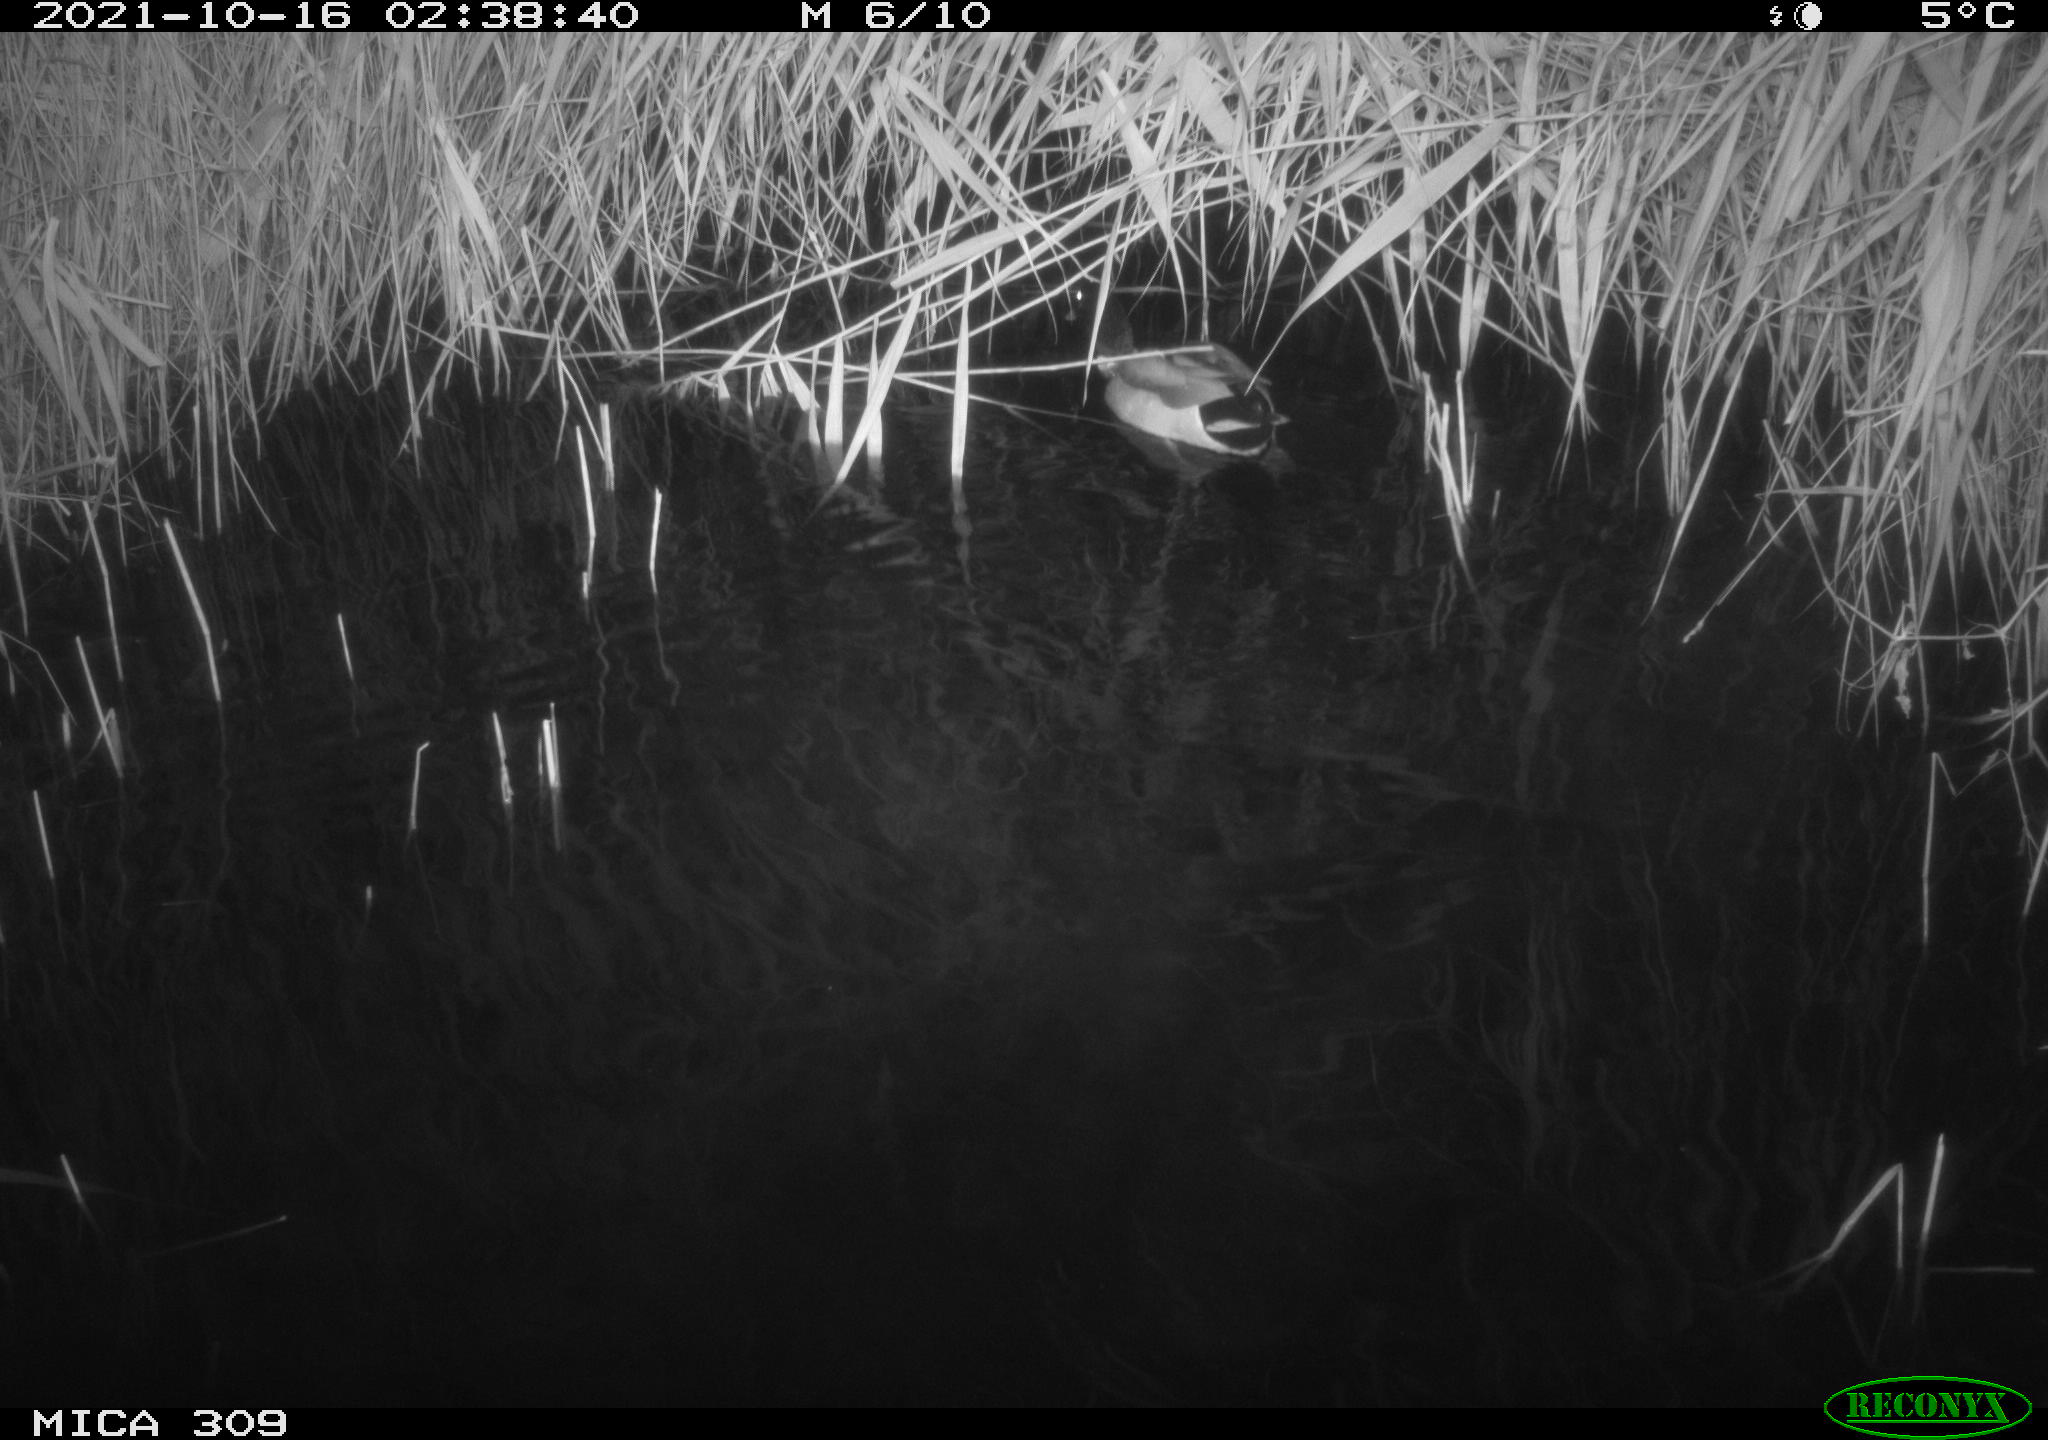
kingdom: Animalia
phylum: Chordata
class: Aves
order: Anseriformes
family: Anatidae
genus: Anas
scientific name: Anas platyrhynchos
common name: Mallard
